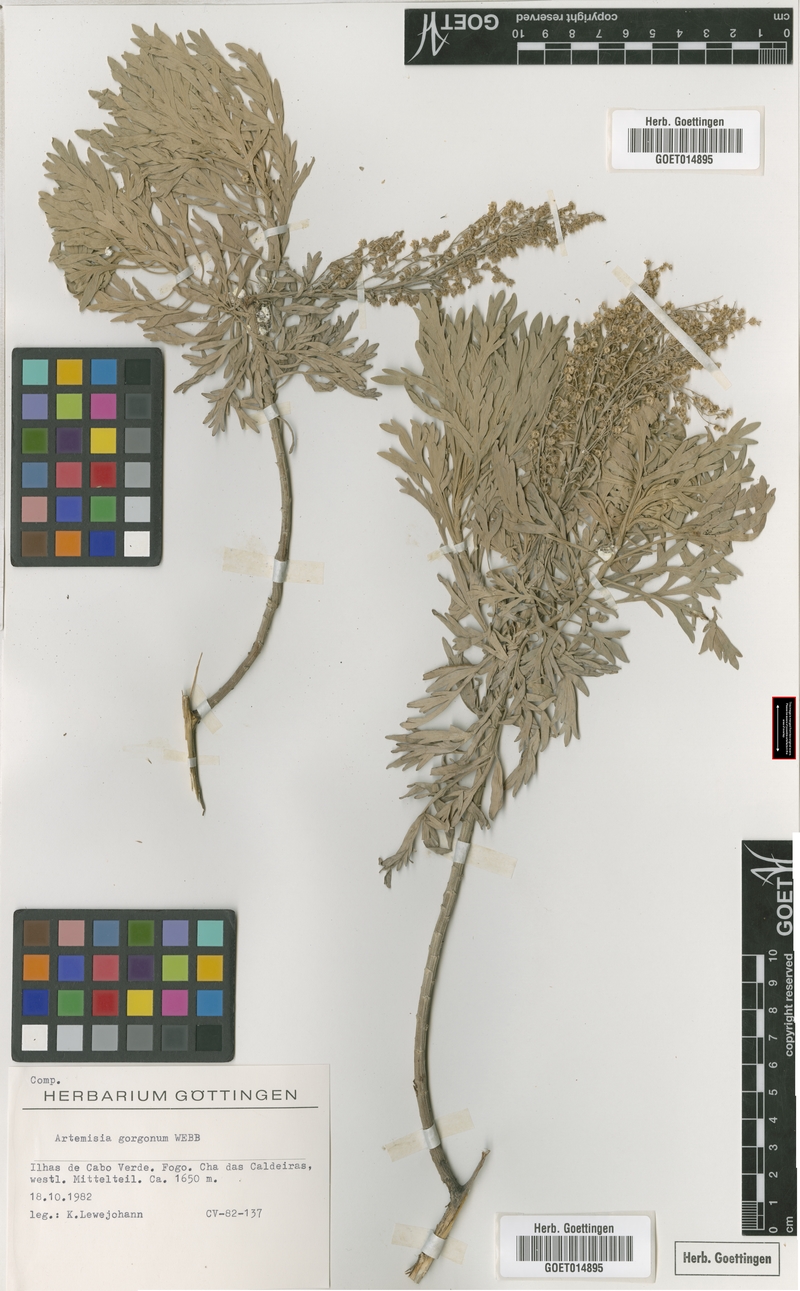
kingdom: Plantae
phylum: Tracheophyta
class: Magnoliopsida
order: Asterales
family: Asteraceae
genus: Artemisia
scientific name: Artemisia gorgonum
